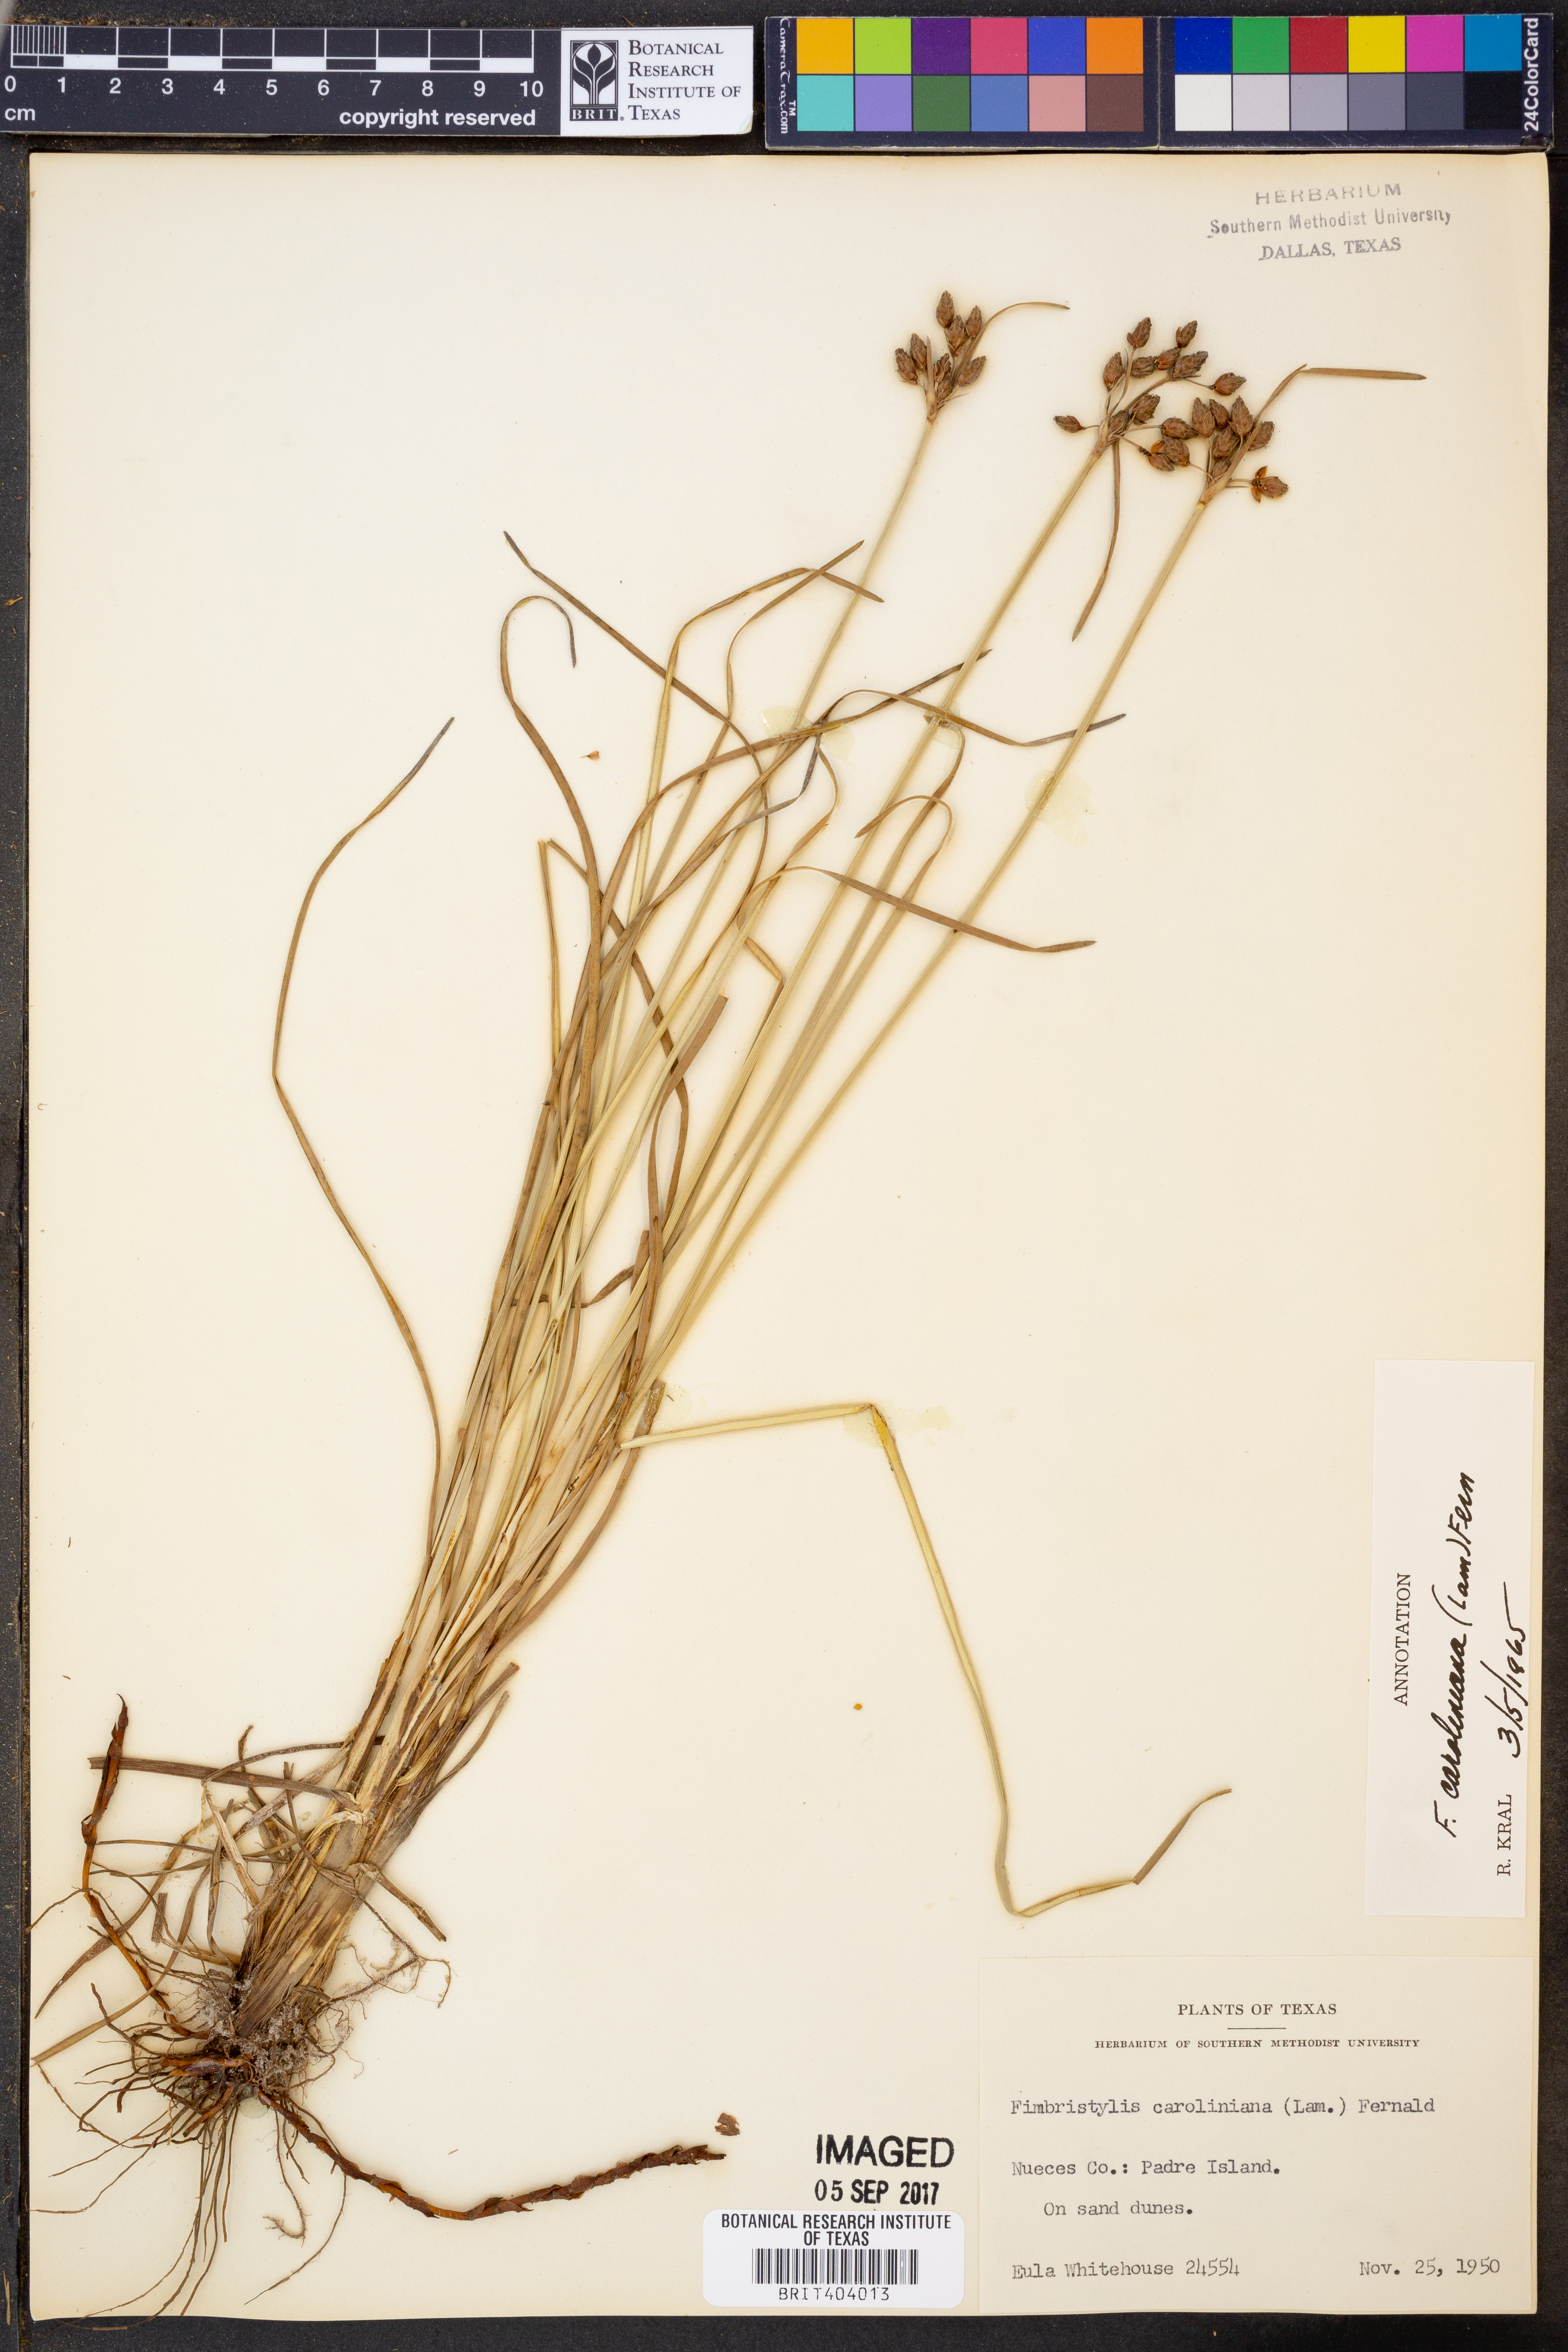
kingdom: Plantae
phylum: Tracheophyta
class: Liliopsida
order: Poales
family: Cyperaceae
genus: Fimbristylis
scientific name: Fimbristylis caroliniana
